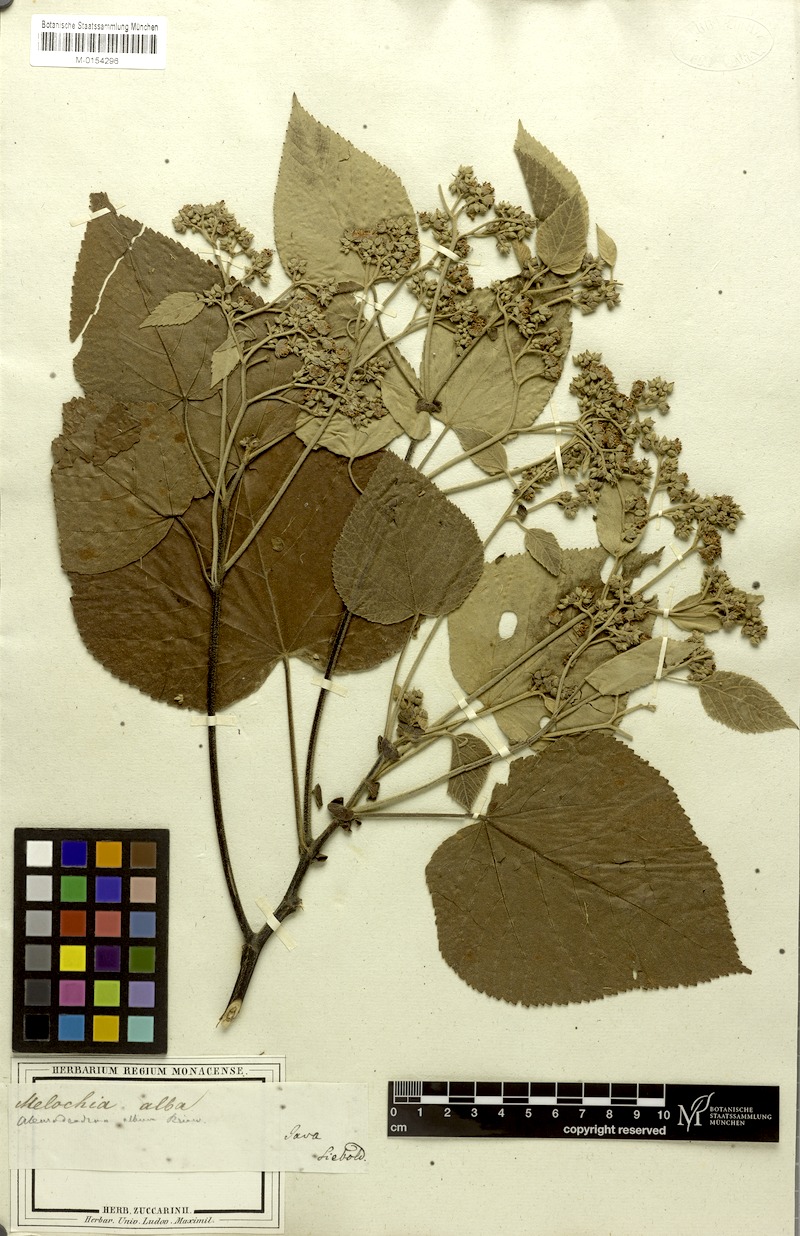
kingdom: Plantae
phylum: Tracheophyta
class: Magnoliopsida
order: Malvales
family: Malvaceae
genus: Melochia
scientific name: Melochia umbellata
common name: Gunpowder tree
